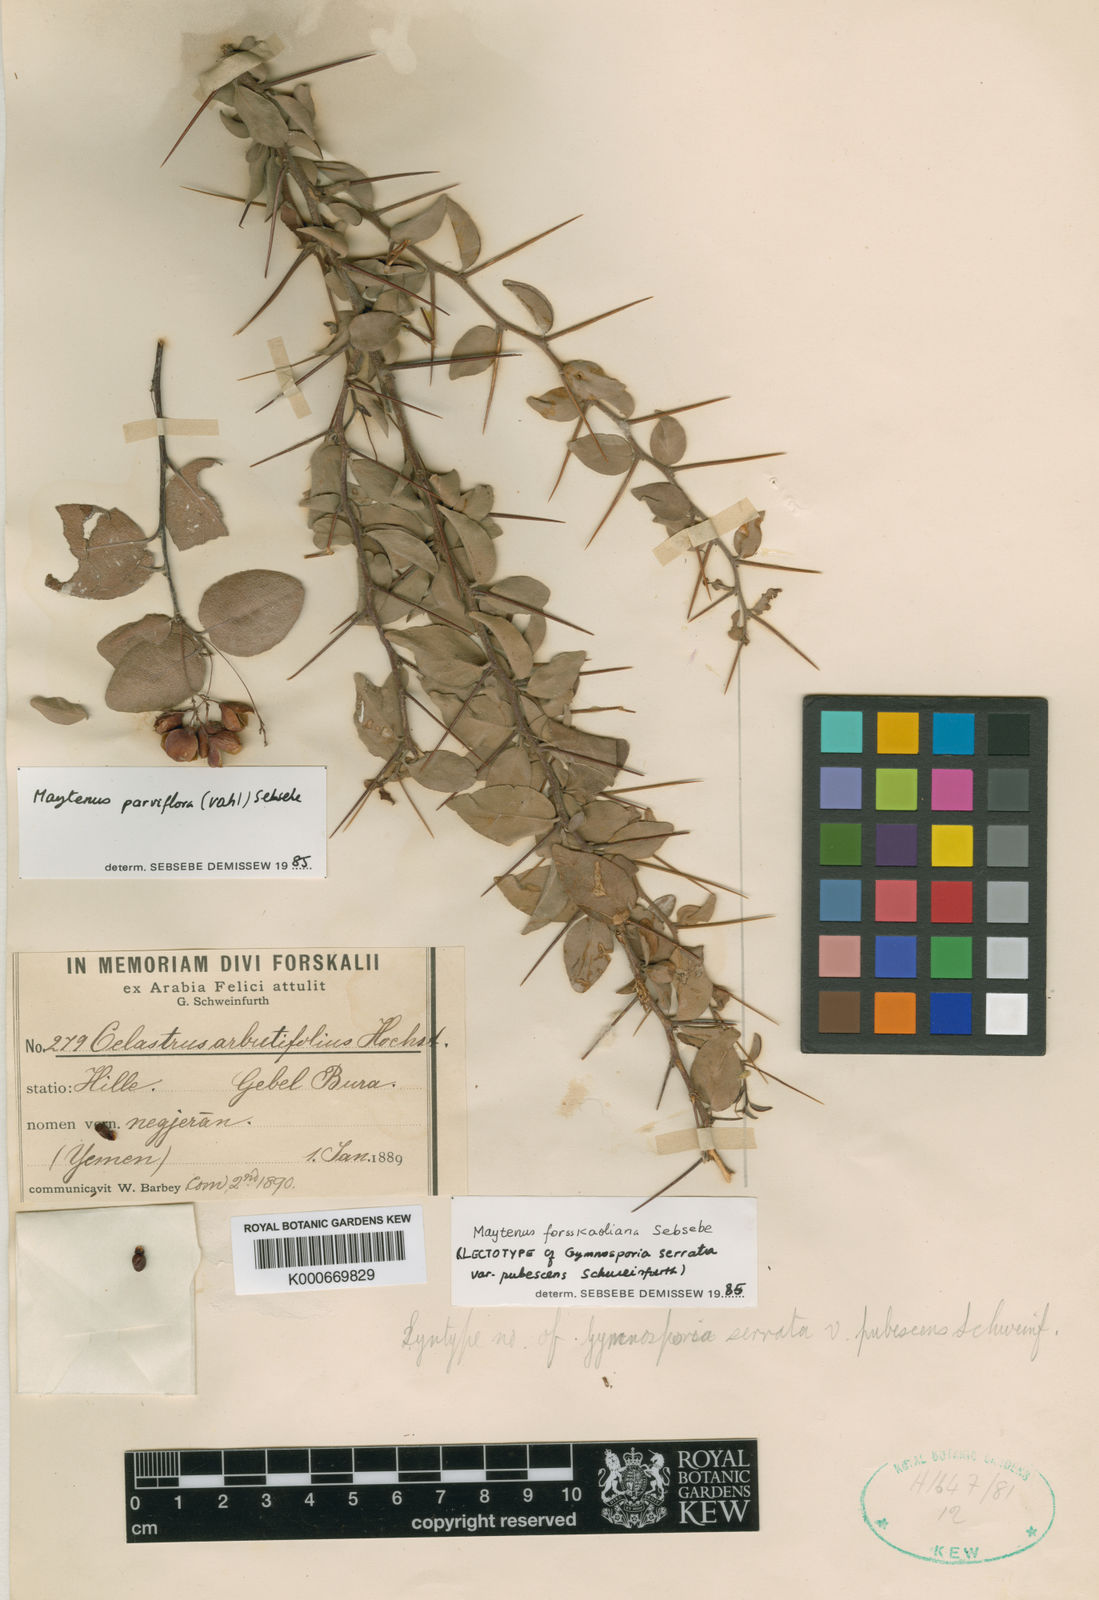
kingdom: Plantae
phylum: Tracheophyta
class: Magnoliopsida
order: Celastrales
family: Celastraceae
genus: Gymnosporia
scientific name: Gymnosporia forsskaoliana
